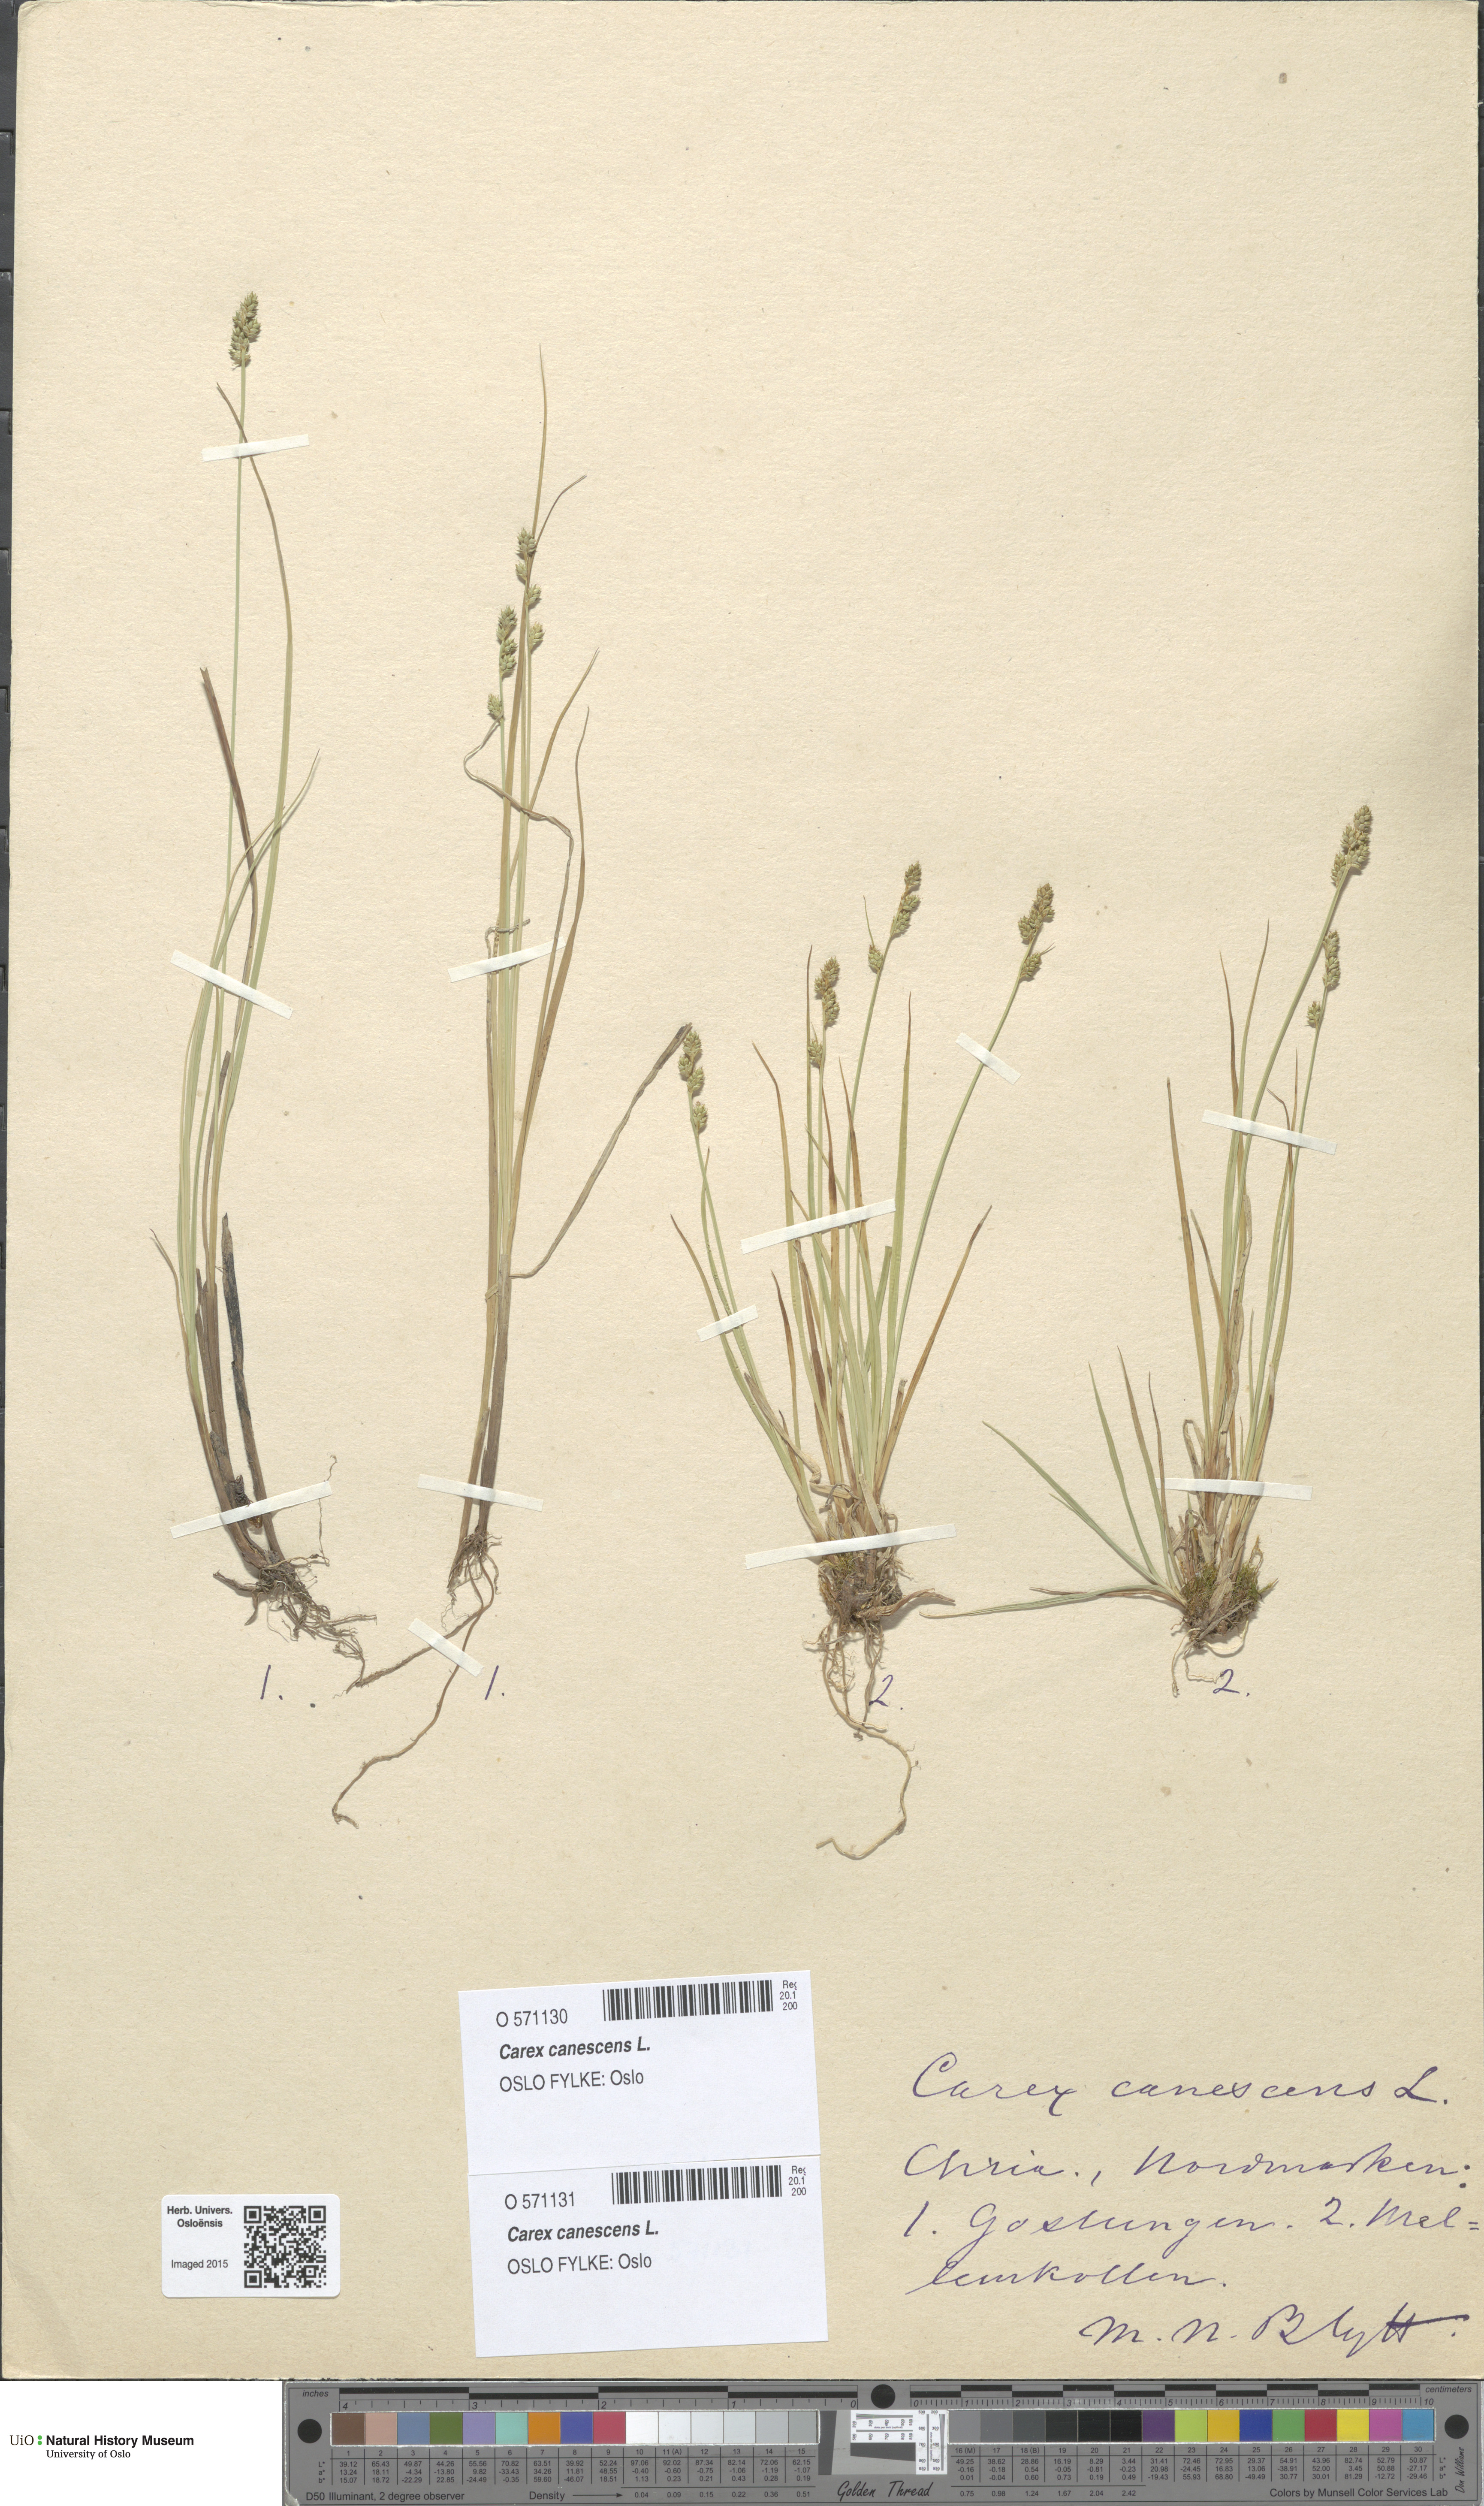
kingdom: Plantae
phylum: Tracheophyta
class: Liliopsida
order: Poales
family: Cyperaceae
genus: Carex
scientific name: Carex canescens
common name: White sedge
